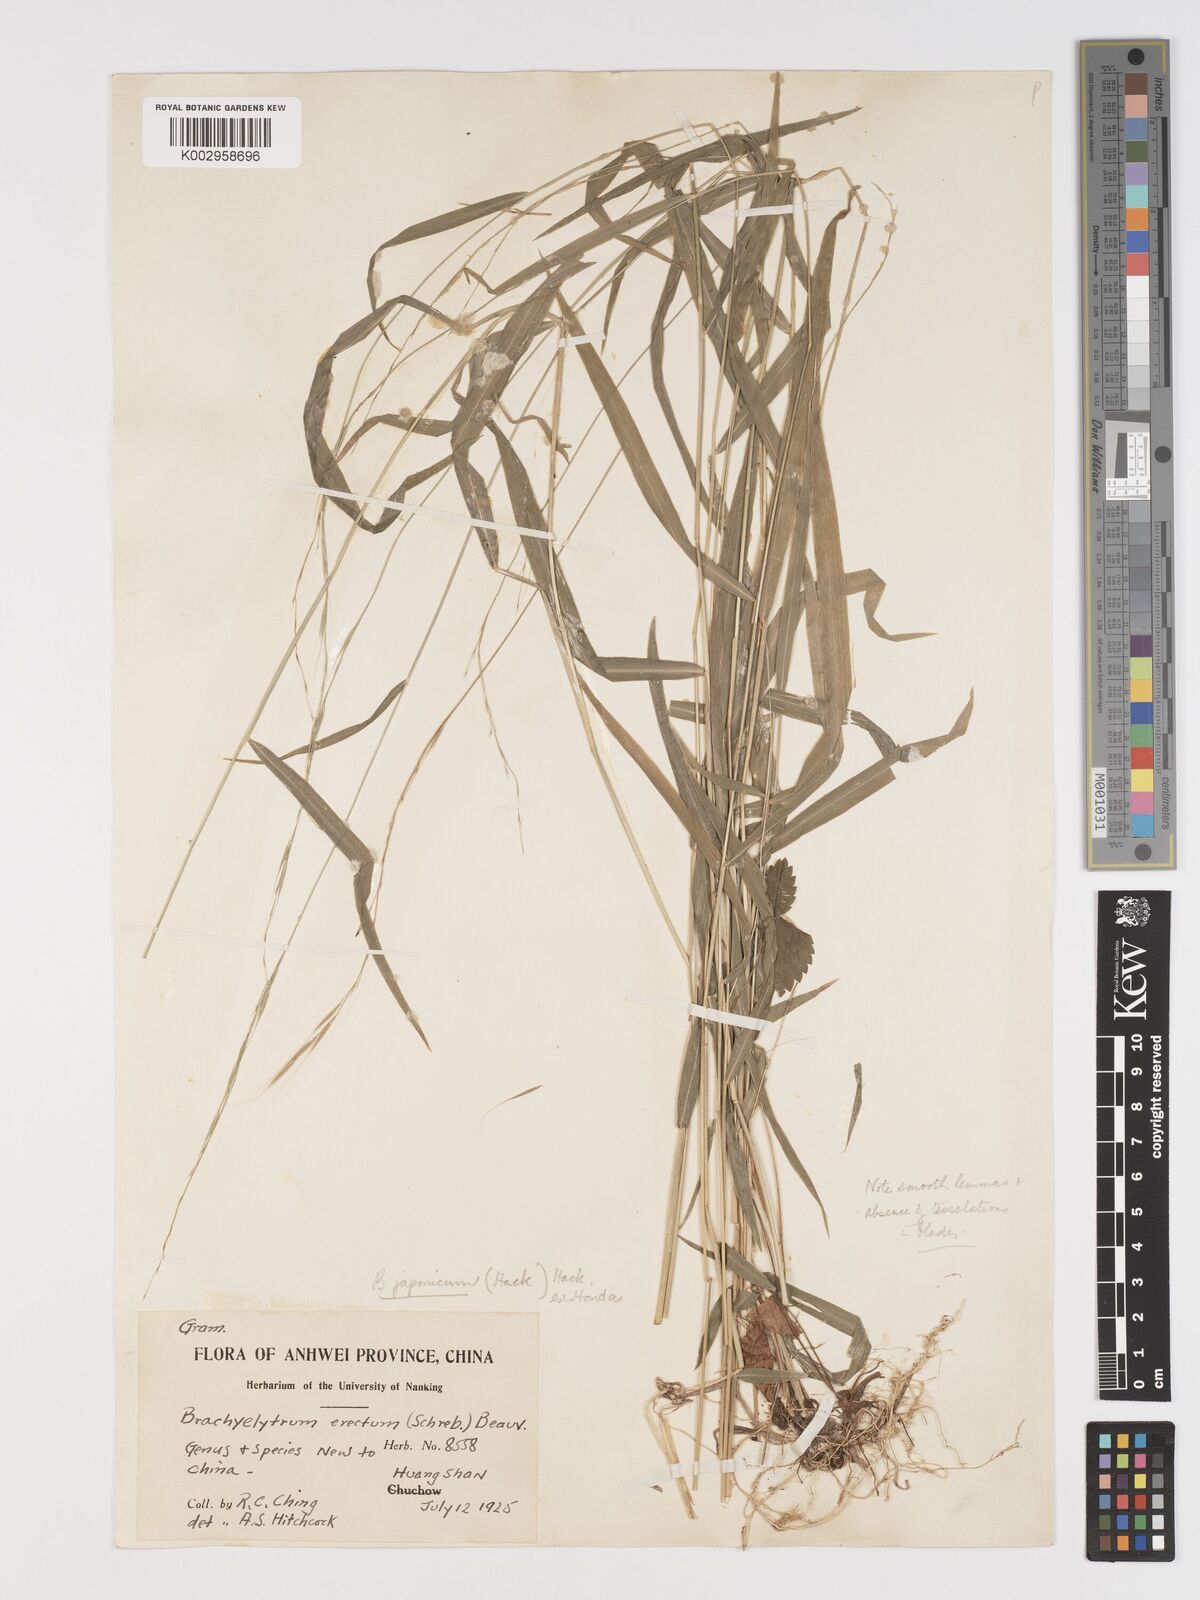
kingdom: Plantae
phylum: Tracheophyta
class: Liliopsida
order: Poales
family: Poaceae
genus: Brachyelytrum
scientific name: Brachyelytrum japonicum
